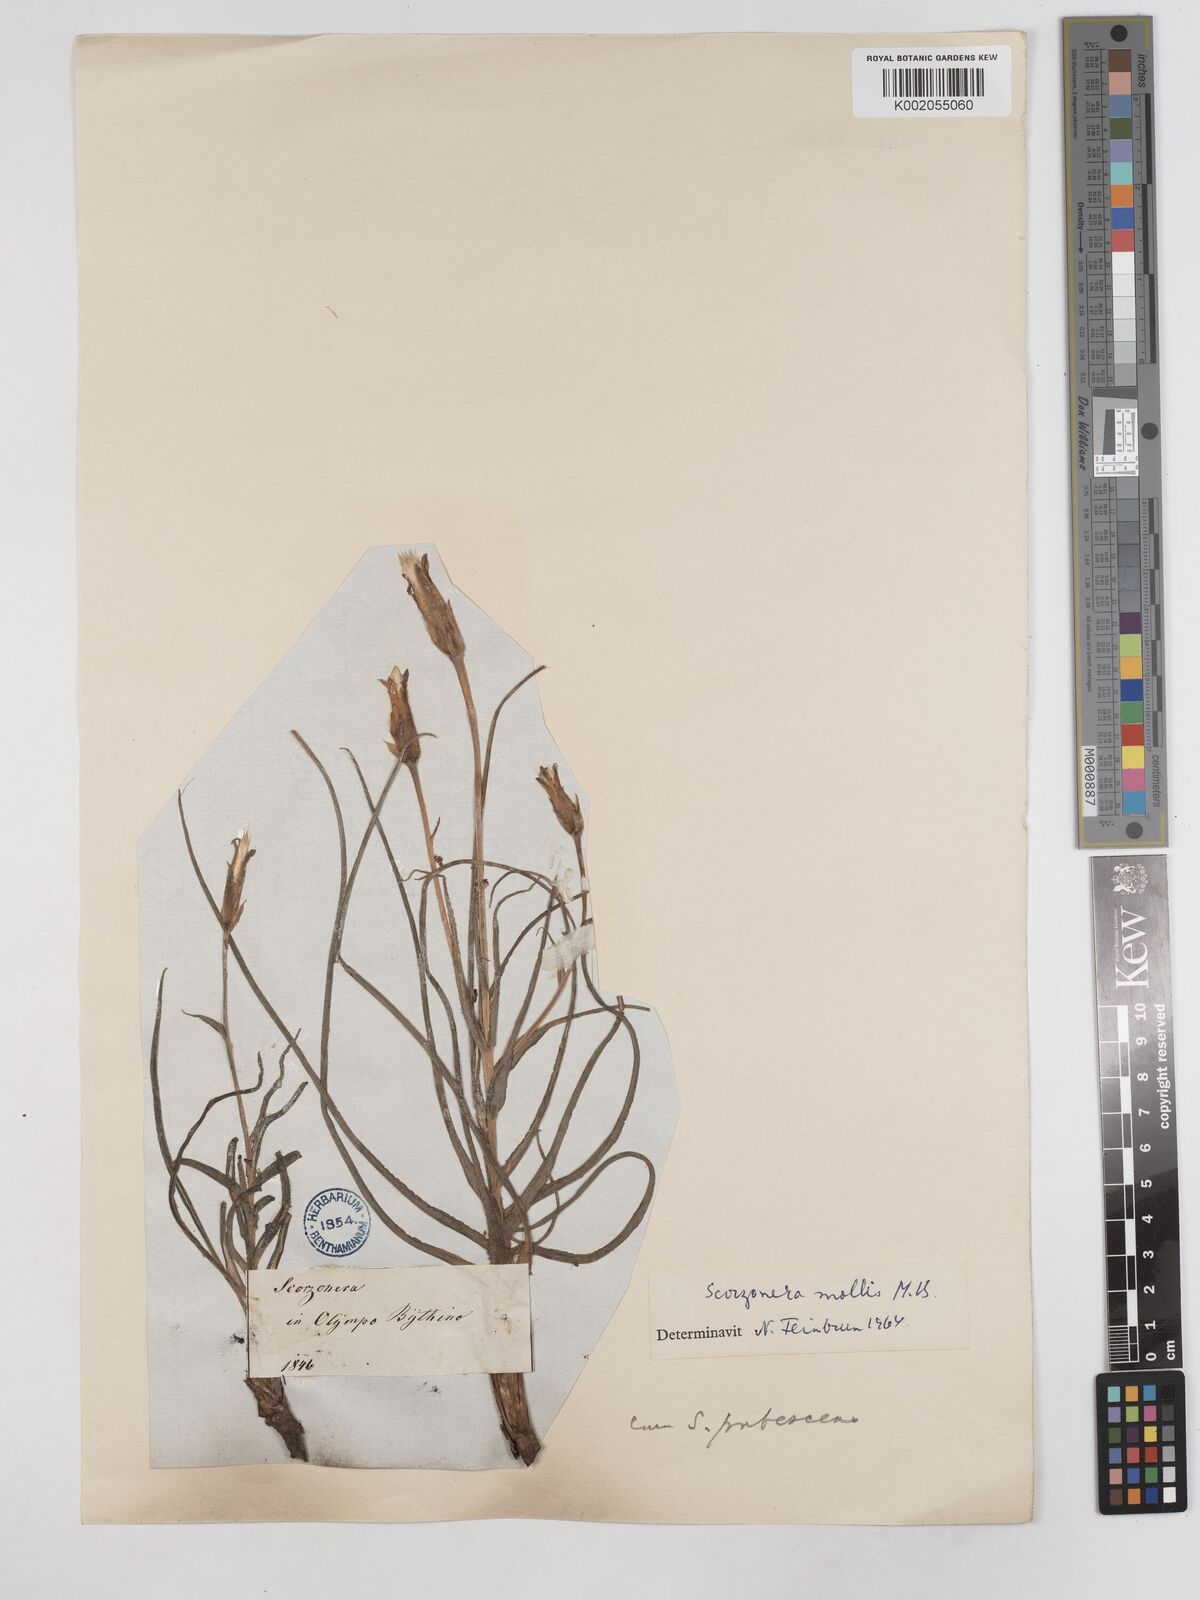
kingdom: Plantae
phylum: Tracheophyta
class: Magnoliopsida
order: Asterales
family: Asteraceae
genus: Candollea
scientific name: Candollea mollis
